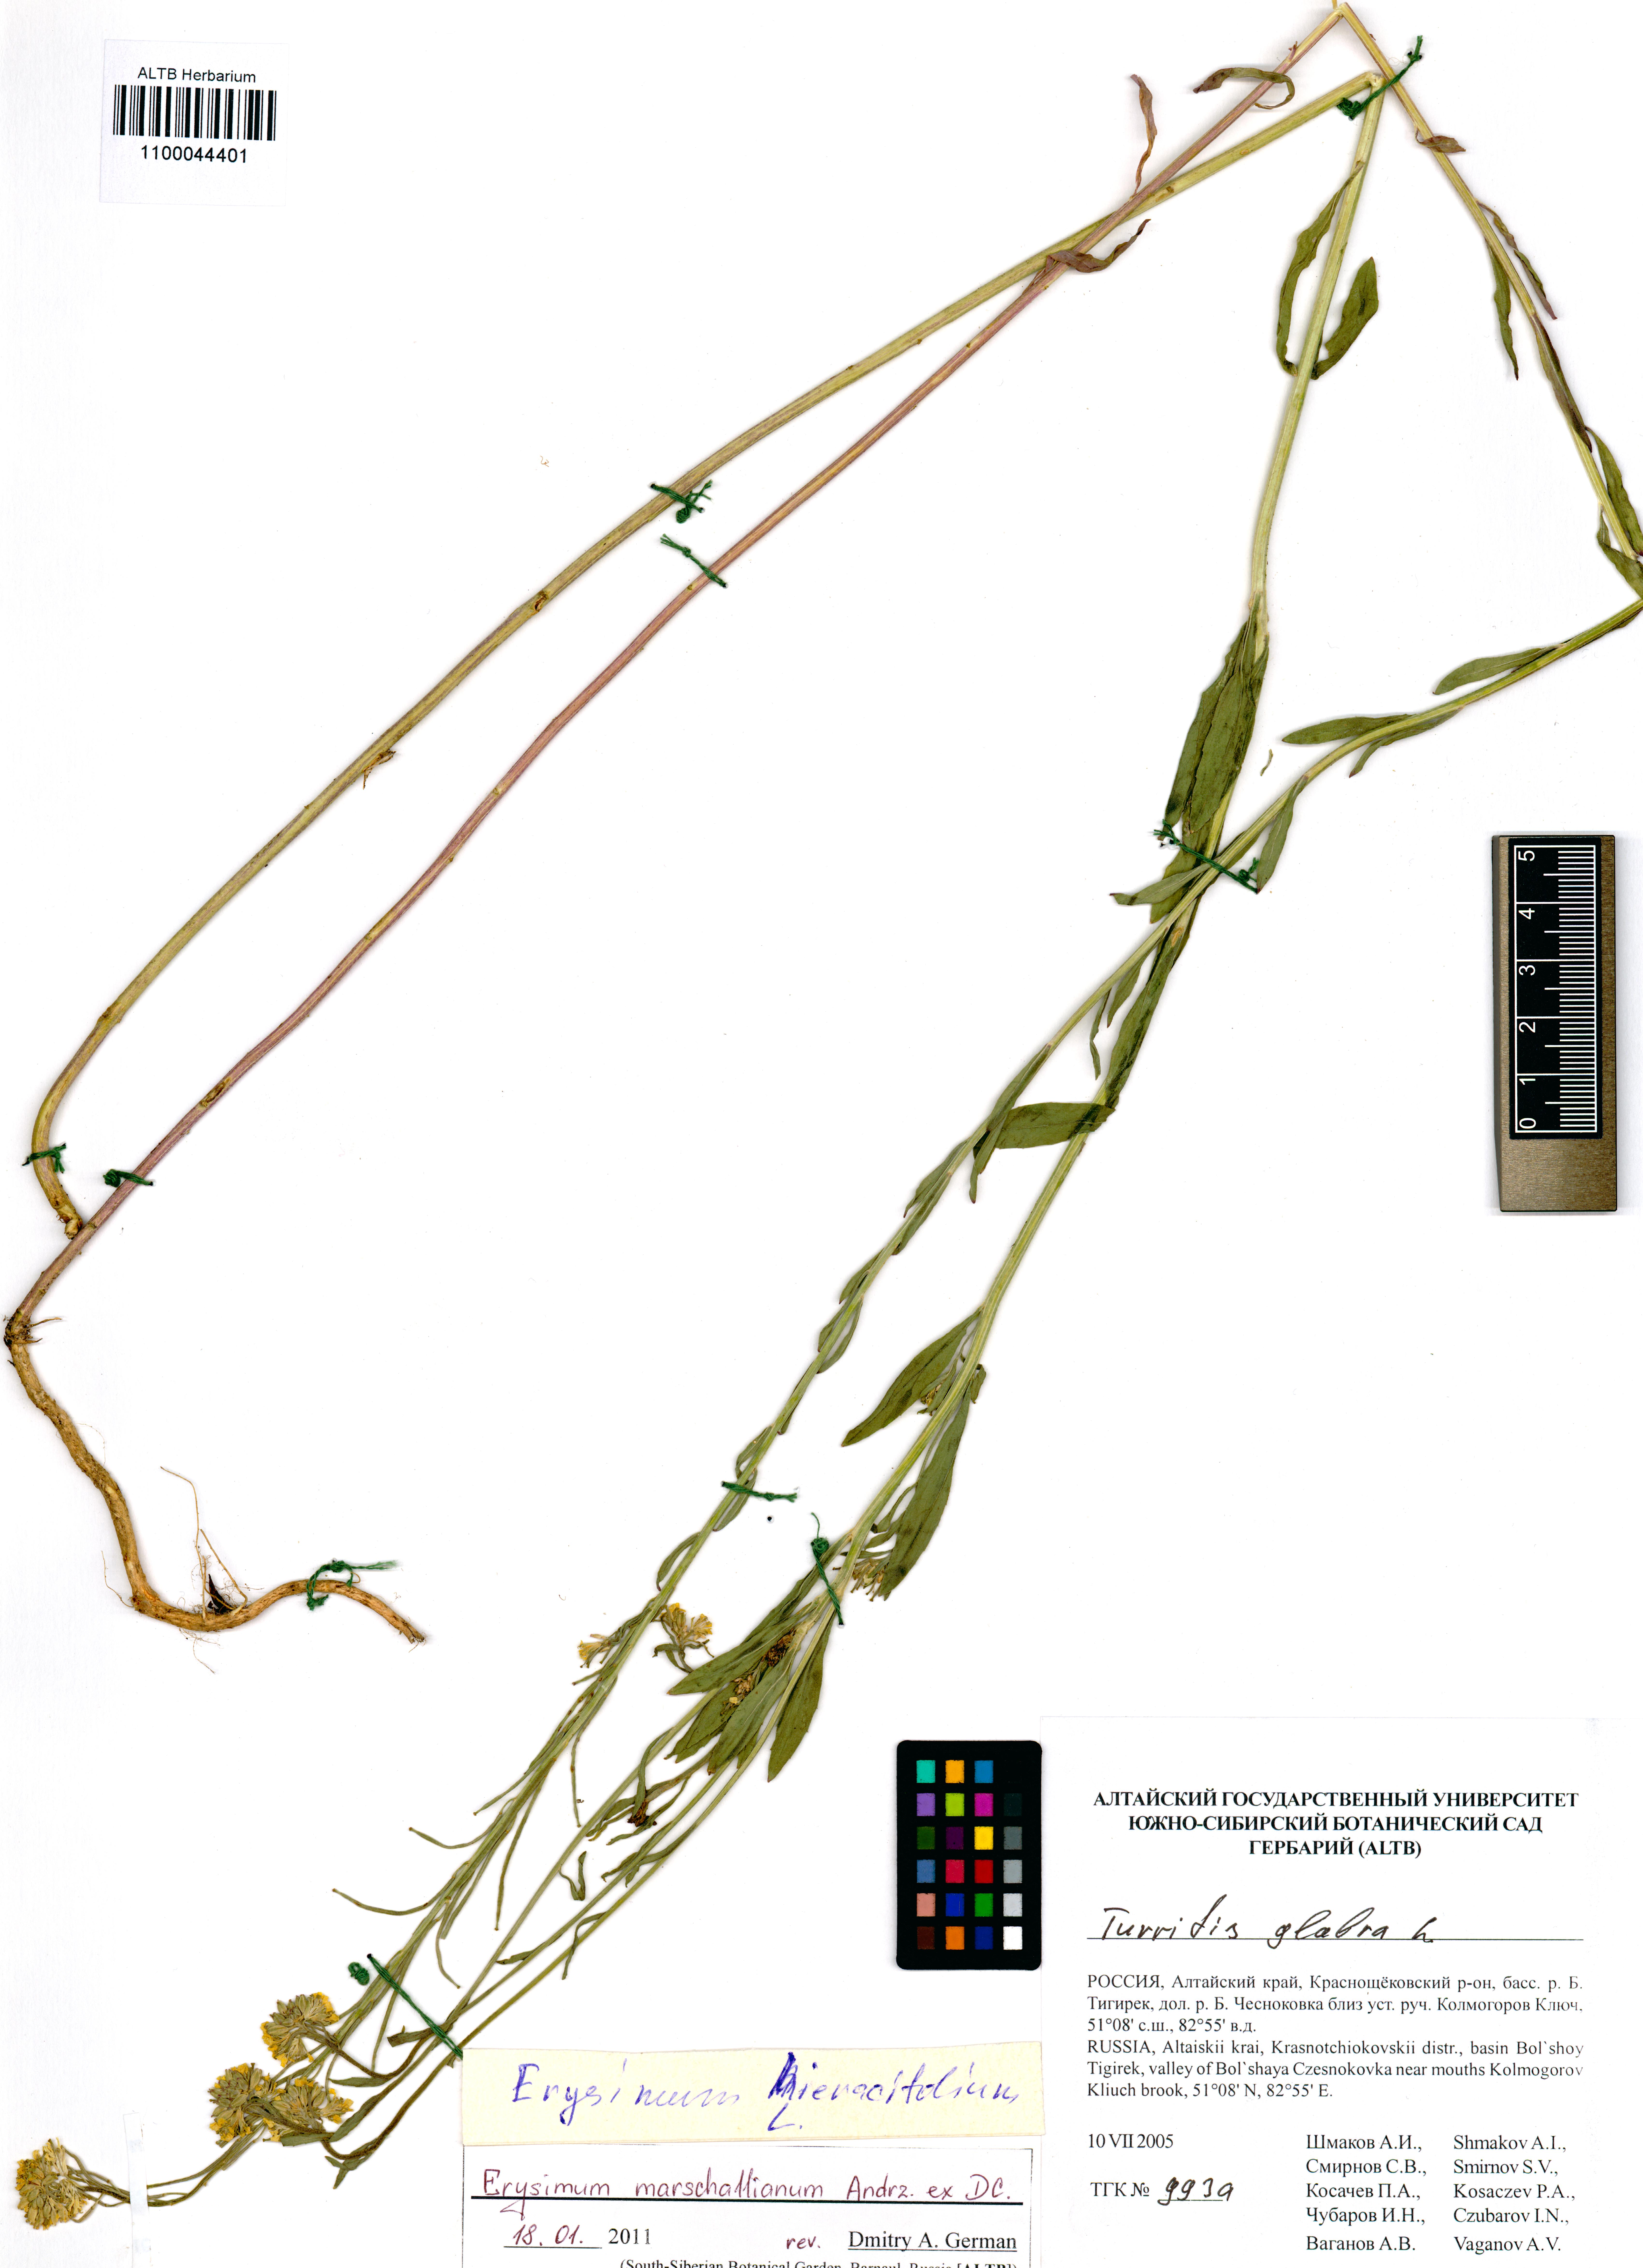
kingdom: Plantae
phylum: Tracheophyta
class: Magnoliopsida
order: Brassicales
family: Brassicaceae
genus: Erysimum
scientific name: Erysimum marschallianum
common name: Hard wallflower
